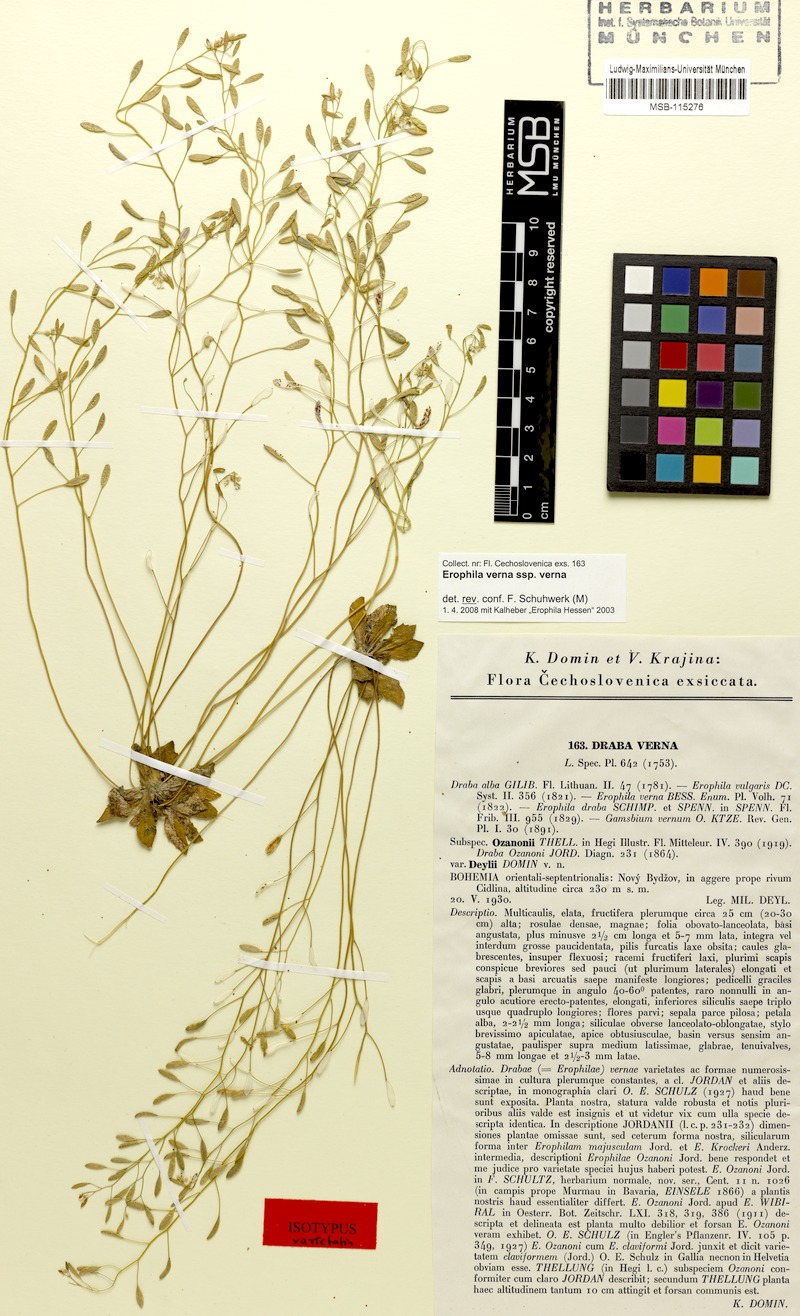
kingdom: Plantae
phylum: Tracheophyta
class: Magnoliopsida
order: Brassicales
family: Brassicaceae
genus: Draba
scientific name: Draba verna
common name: Spring draba
